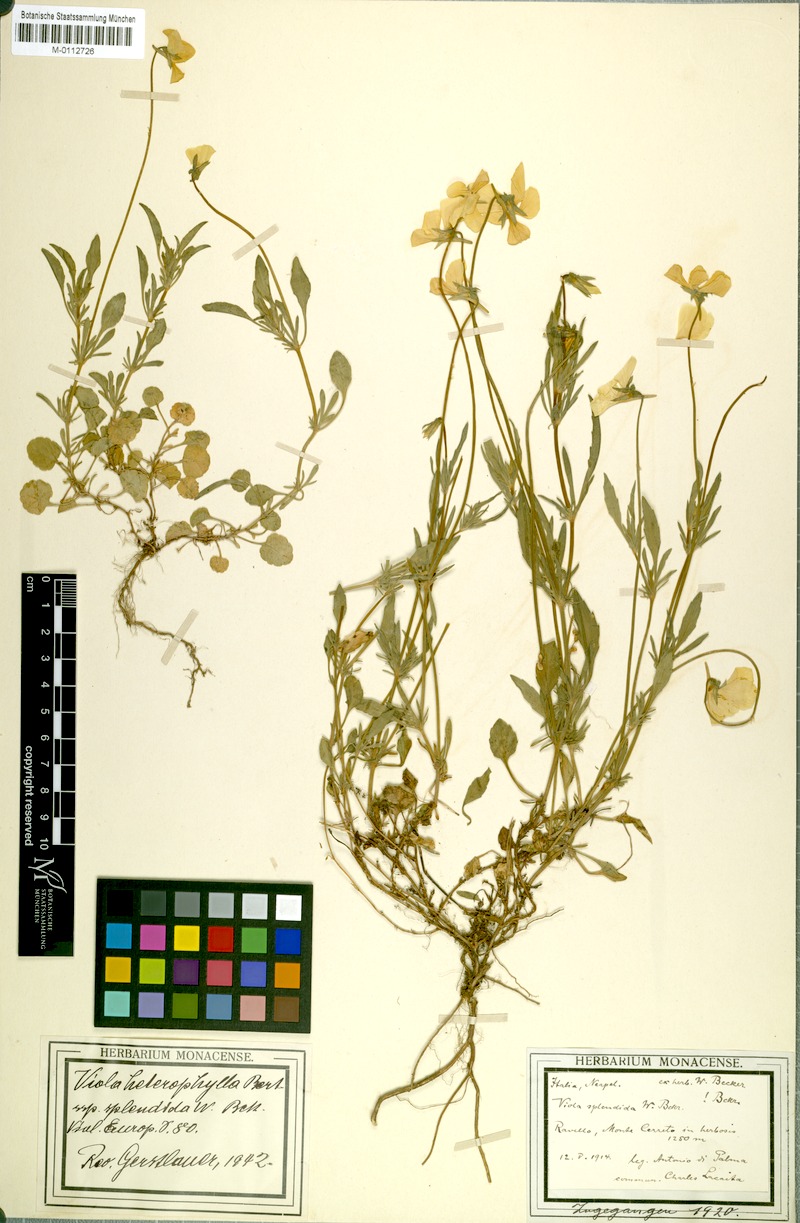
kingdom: Plantae
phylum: Tracheophyta
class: Magnoliopsida
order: Malpighiales
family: Violaceae
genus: Viola
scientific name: Viola aethnensis
